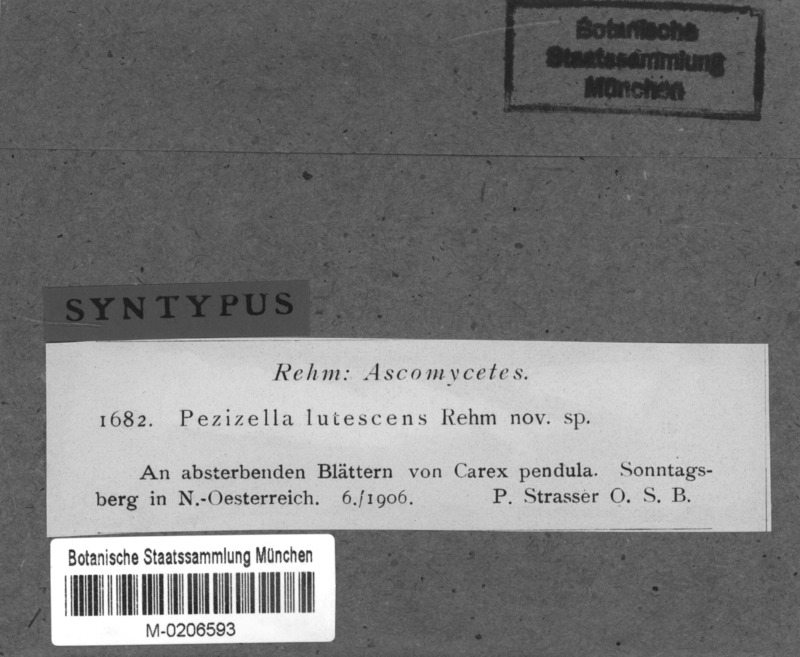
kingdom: Fungi
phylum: Ascomycota
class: Leotiomycetes
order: Helotiales
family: Ploettnerulaceae
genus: Pyrenopeziza
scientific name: Pyrenopeziza fuscescens
